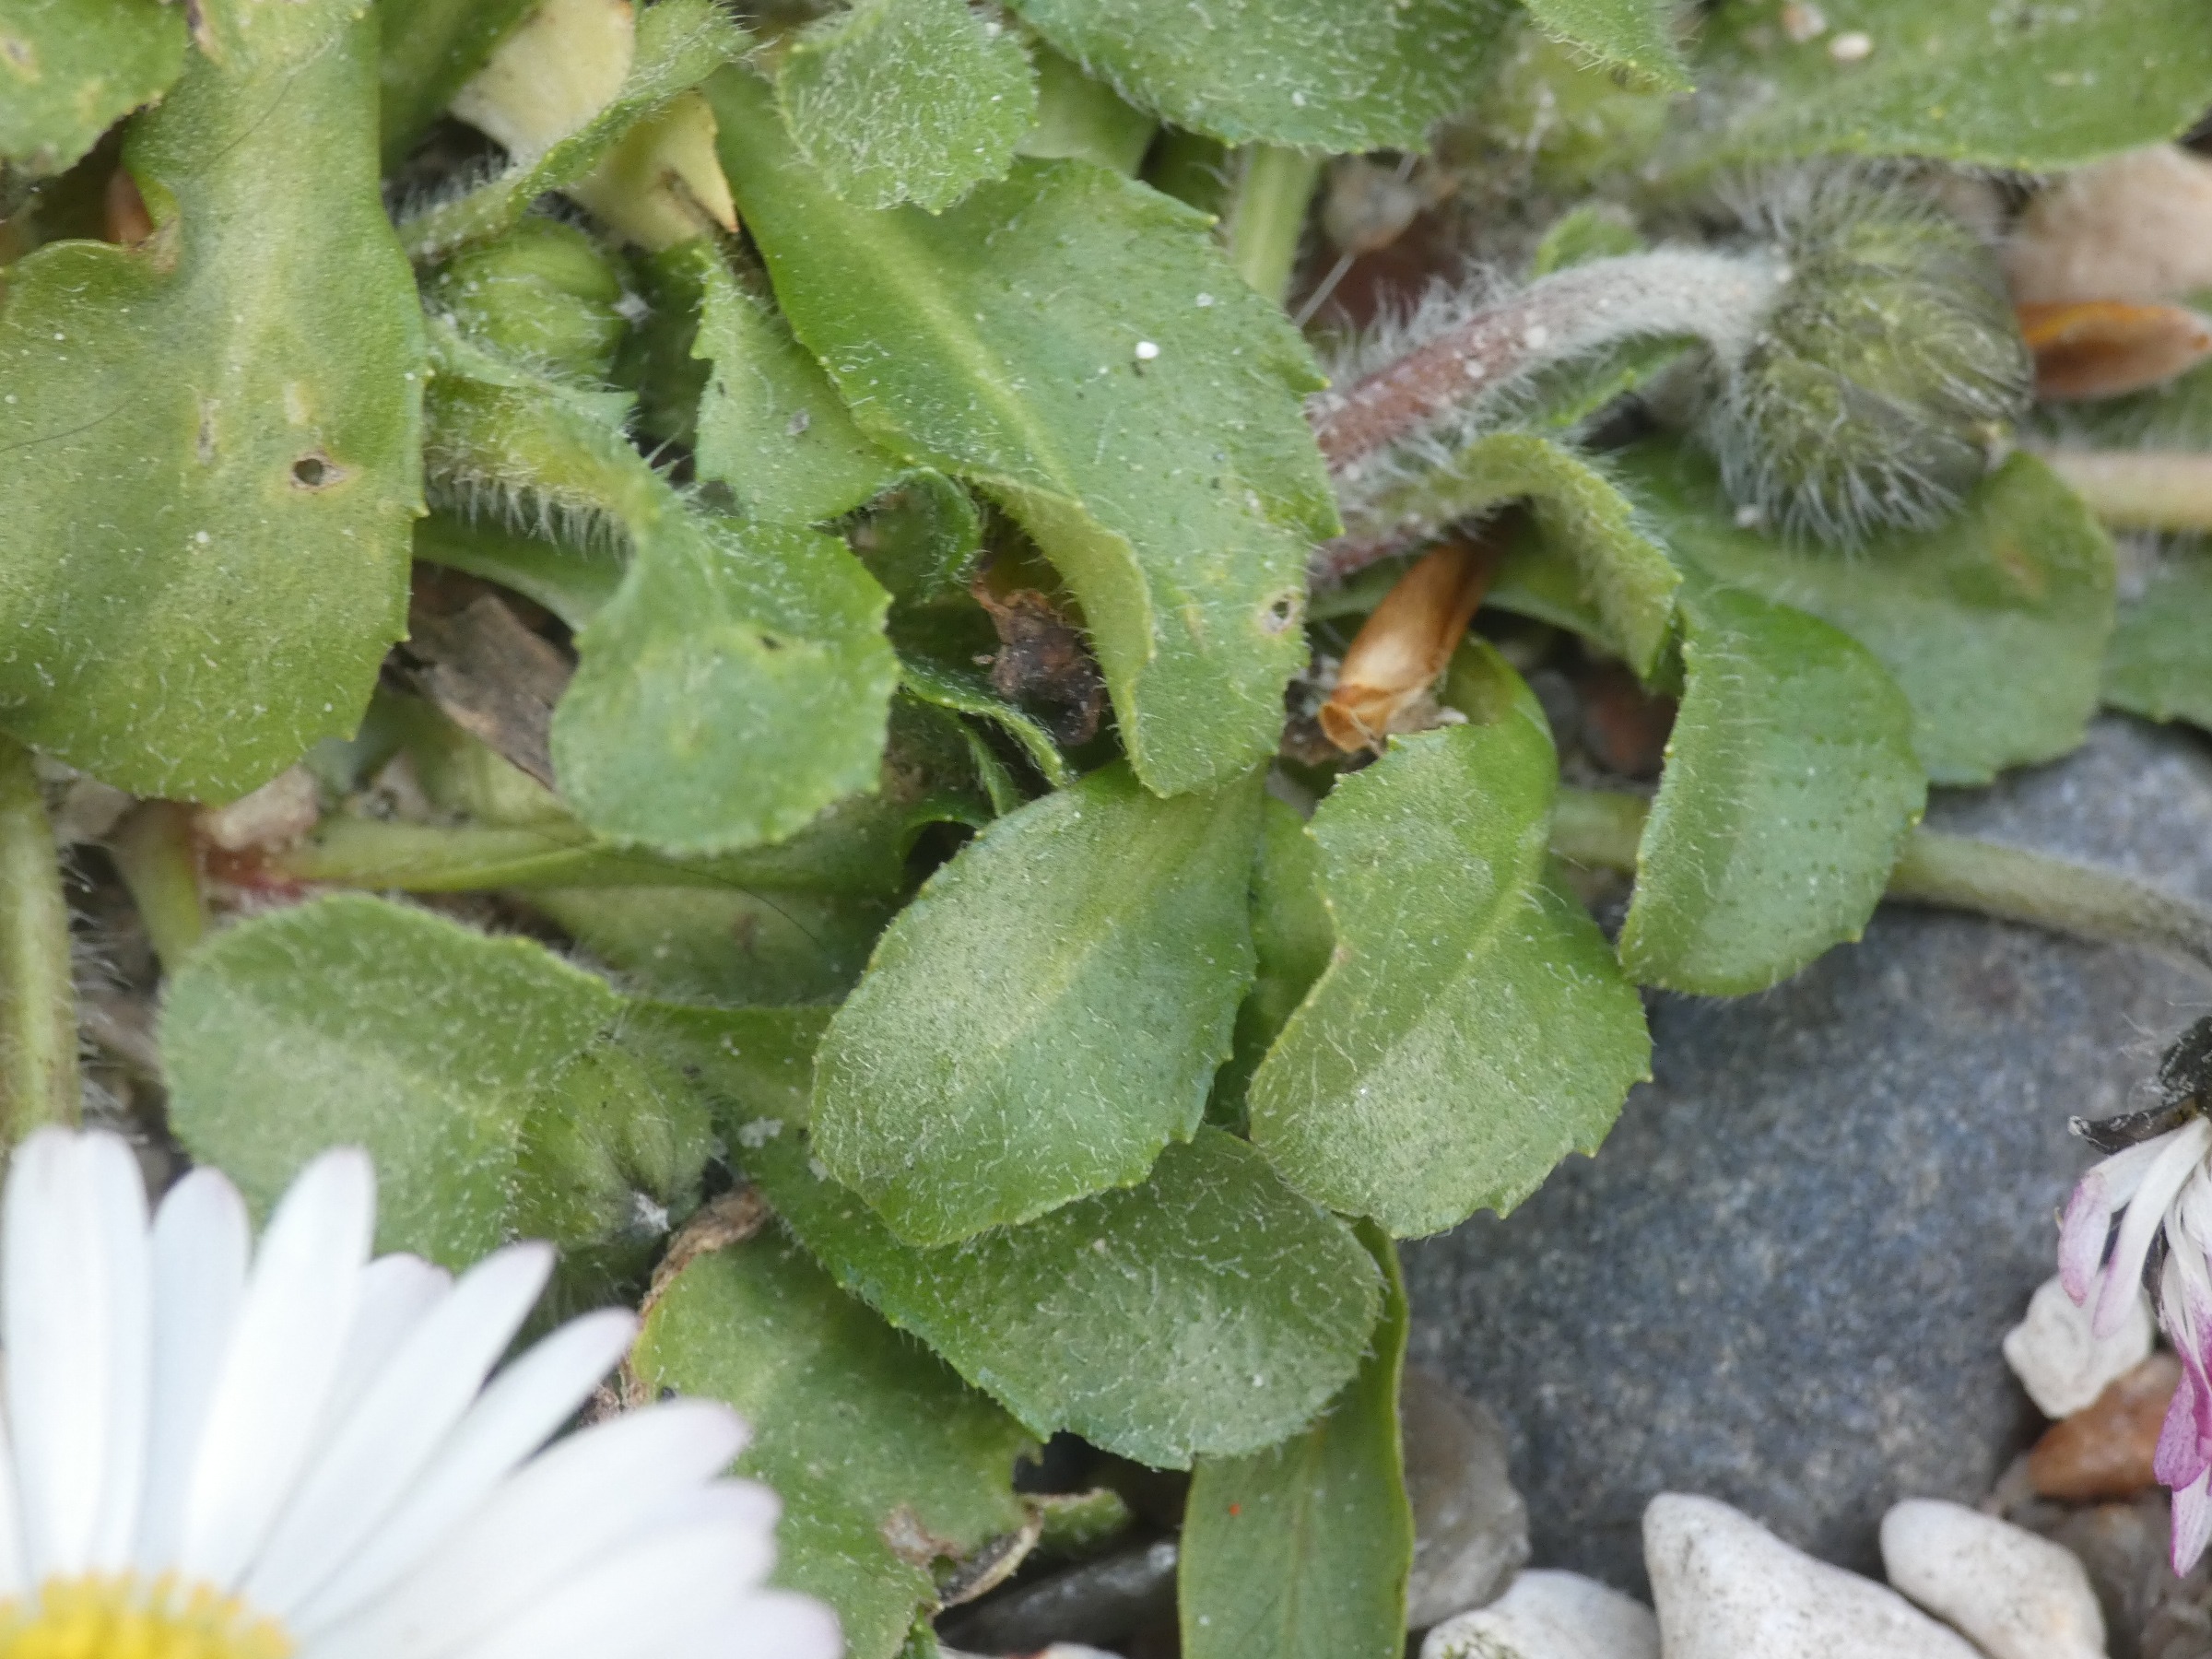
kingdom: Plantae
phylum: Tracheophyta
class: Magnoliopsida
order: Asterales
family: Asteraceae
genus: Bellis
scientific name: Bellis perennis
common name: Tusindfryd
